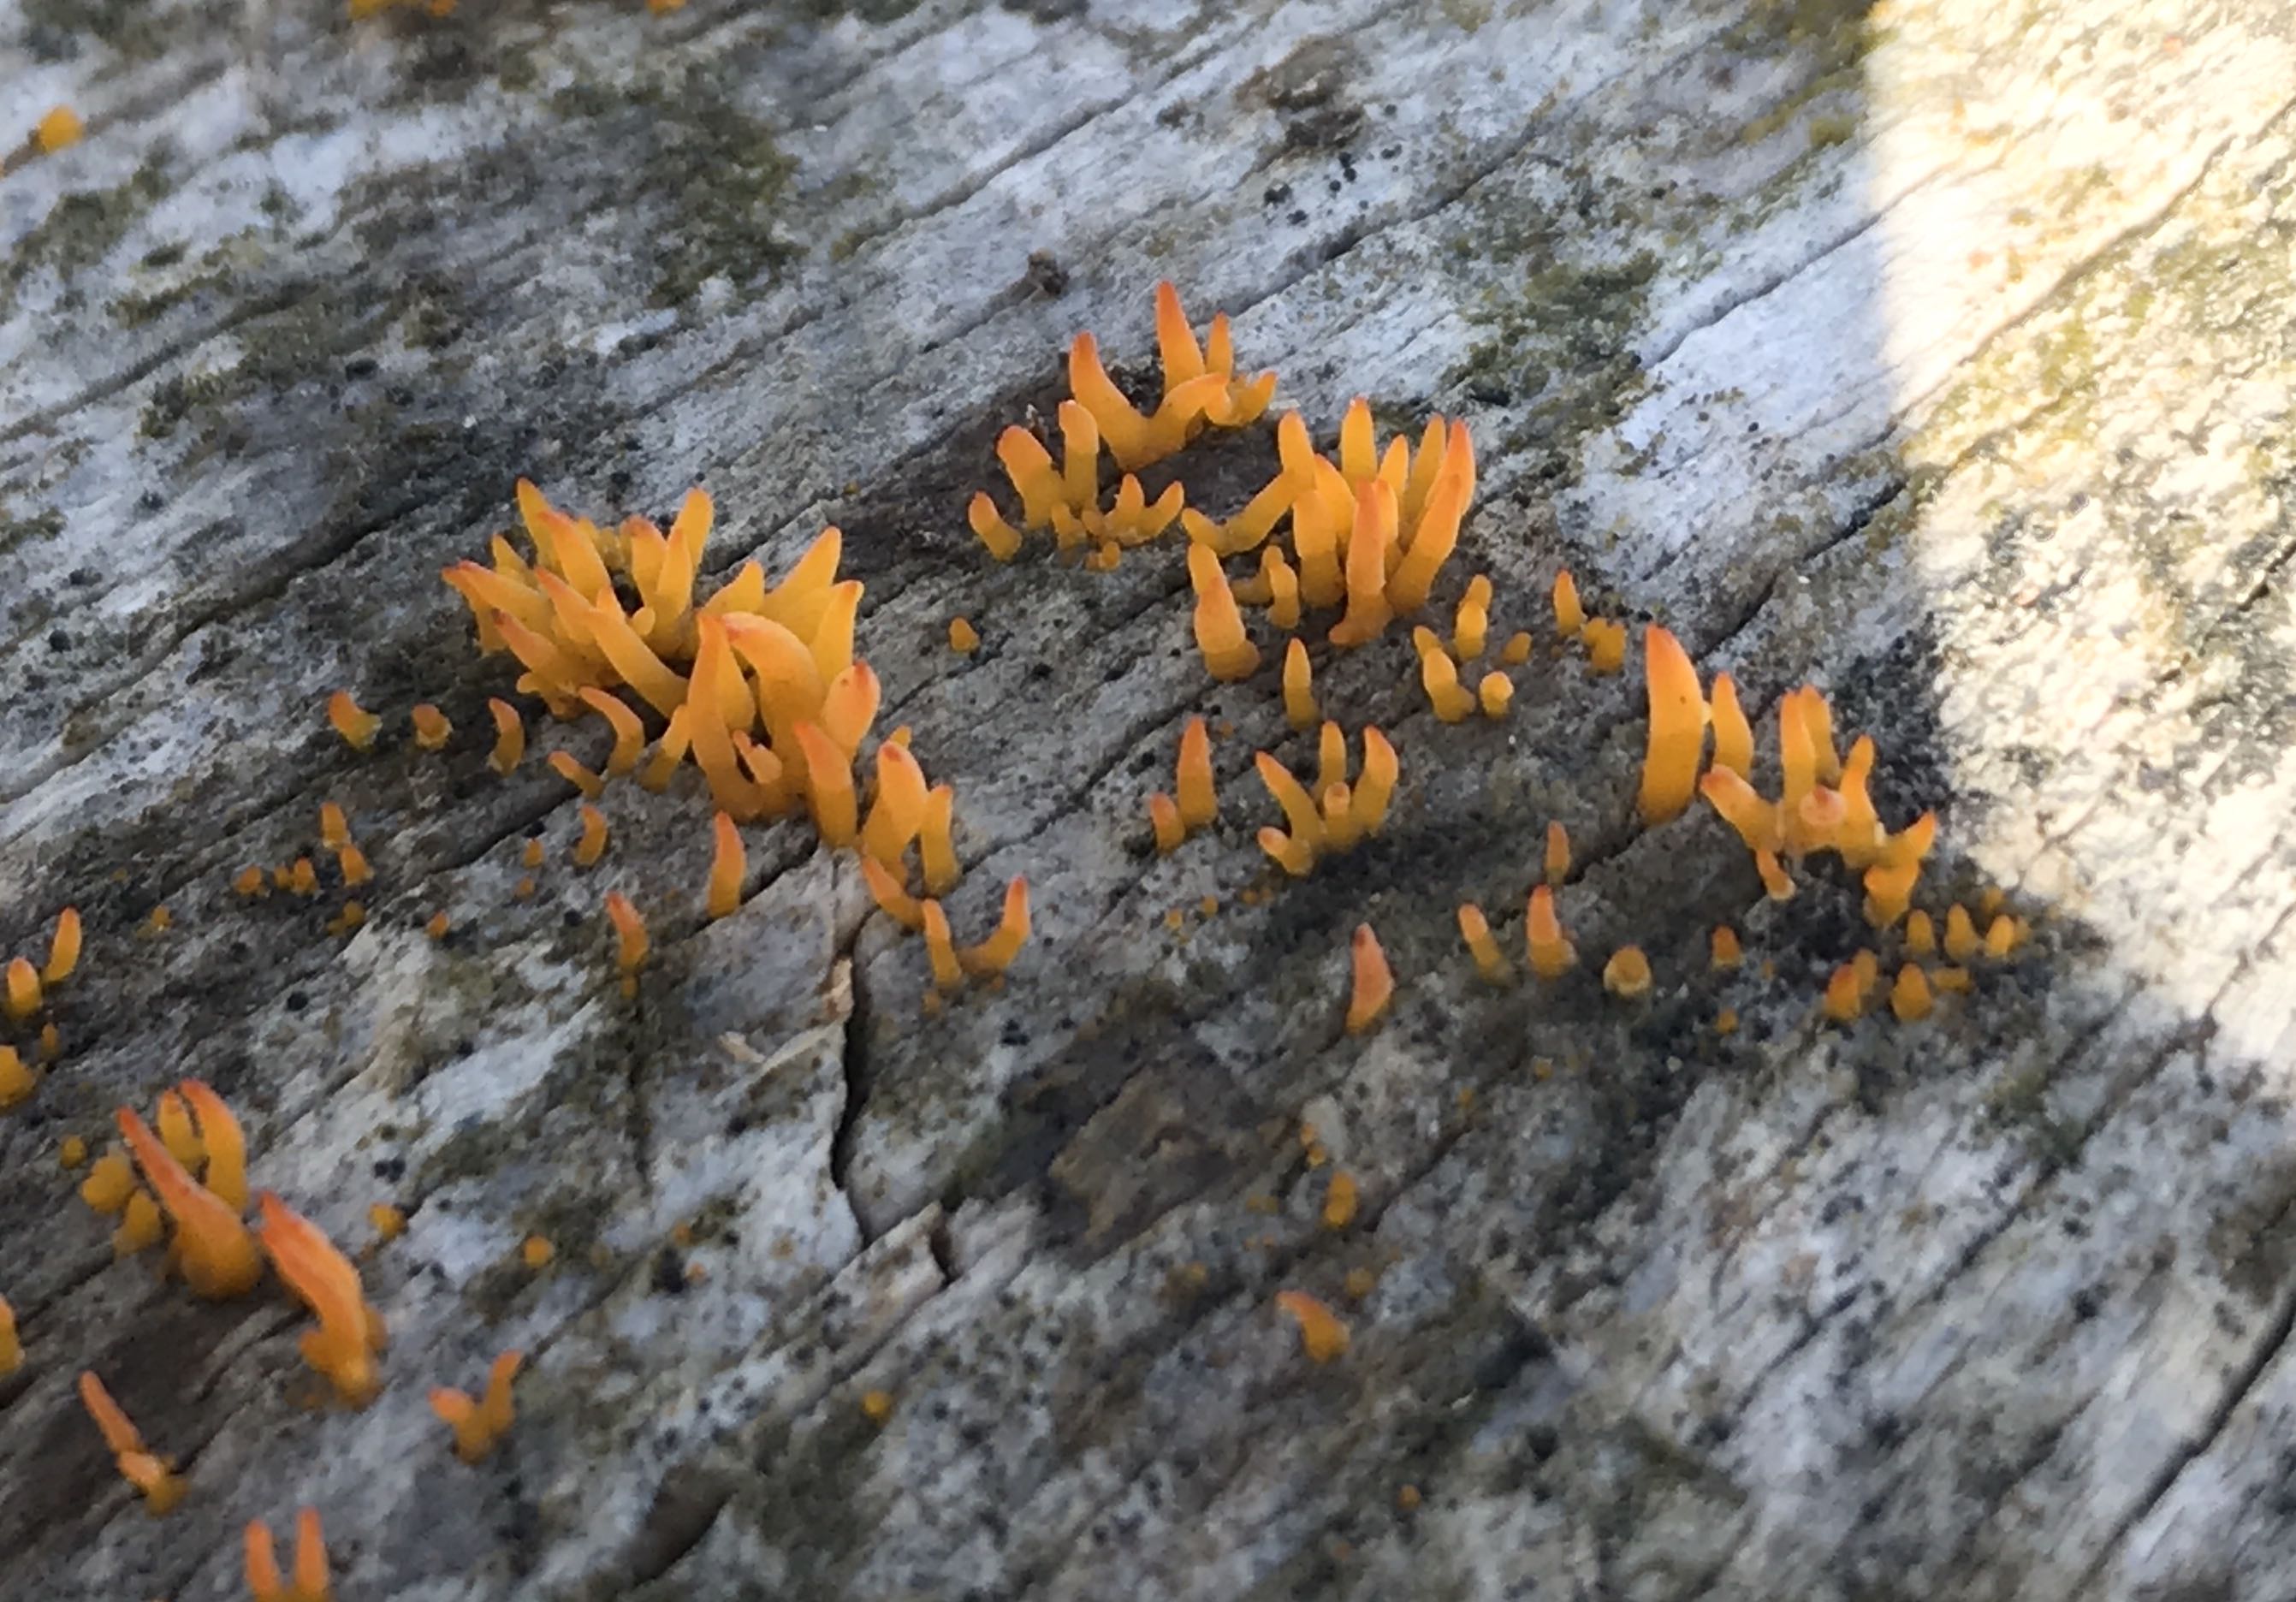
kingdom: Fungi
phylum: Basidiomycota
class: Dacrymycetes
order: Dacrymycetales
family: Dacrymycetaceae
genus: Calocera
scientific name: Calocera cornea
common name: liden guldgaffel
